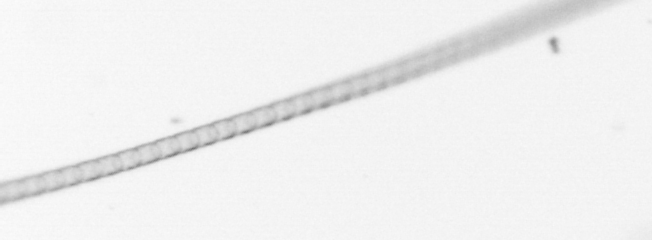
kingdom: Chromista
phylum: Ochrophyta
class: Bacillariophyceae
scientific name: Bacillariophyceae
